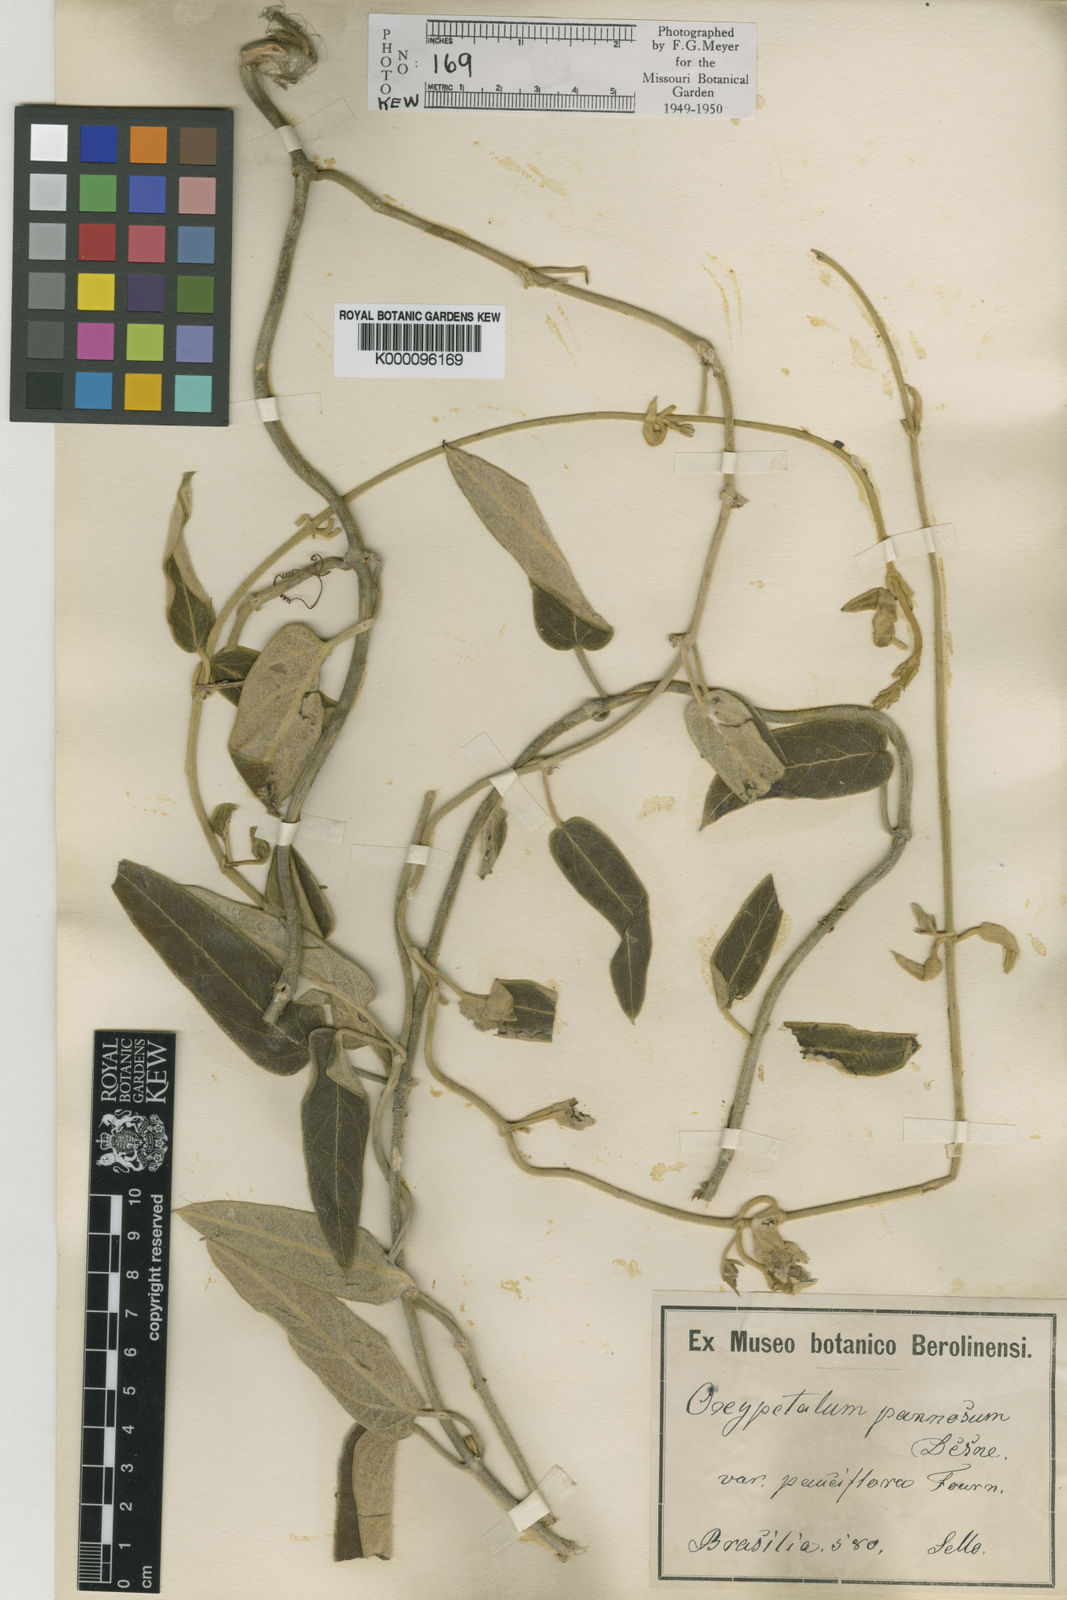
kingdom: Plantae
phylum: Tracheophyta
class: Magnoliopsida
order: Gentianales
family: Apocynaceae
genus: Oxypetalum
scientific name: Oxypetalum pannosum
